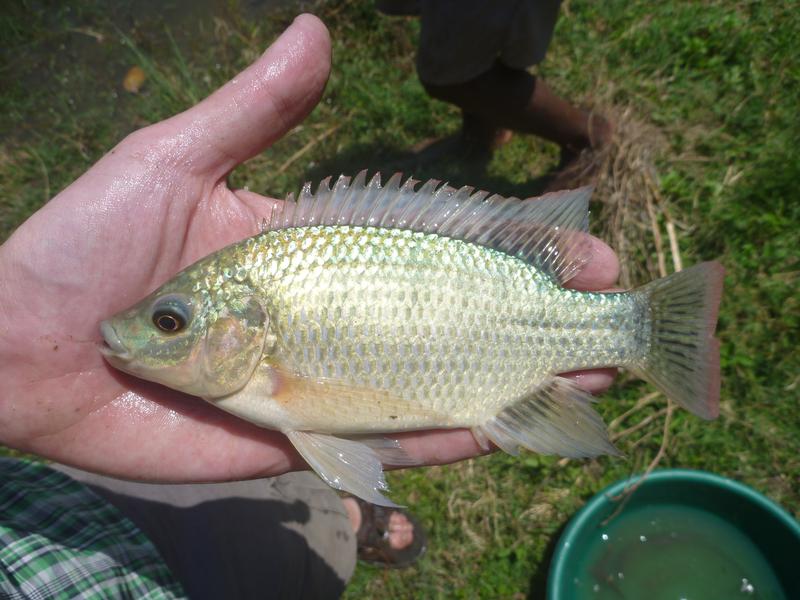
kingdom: Animalia
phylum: Chordata
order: Perciformes
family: Cichlidae
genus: Oreochromis
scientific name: Oreochromis
